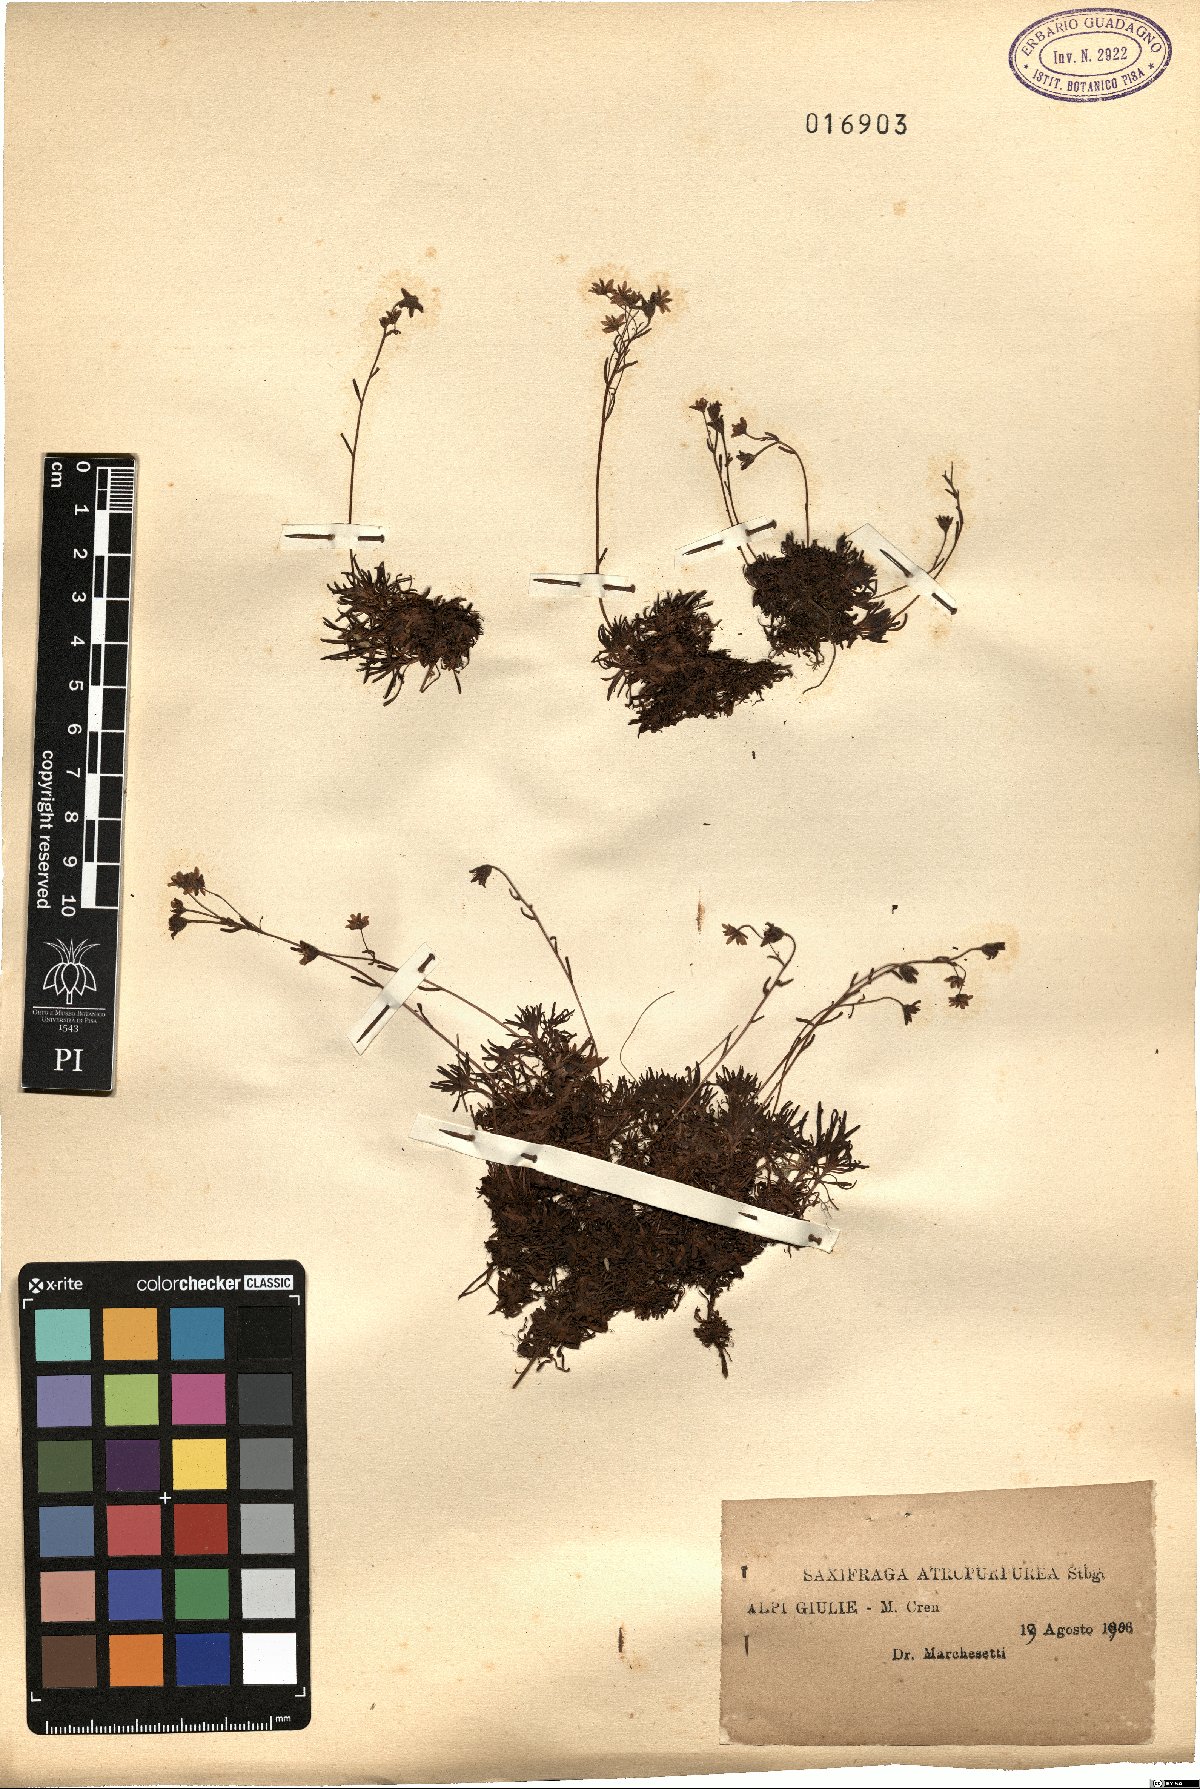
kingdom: Plantae
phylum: Tracheophyta
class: Magnoliopsida
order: Saxifragales
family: Saxifragaceae
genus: Saxifraga
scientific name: Saxifraga exarata
